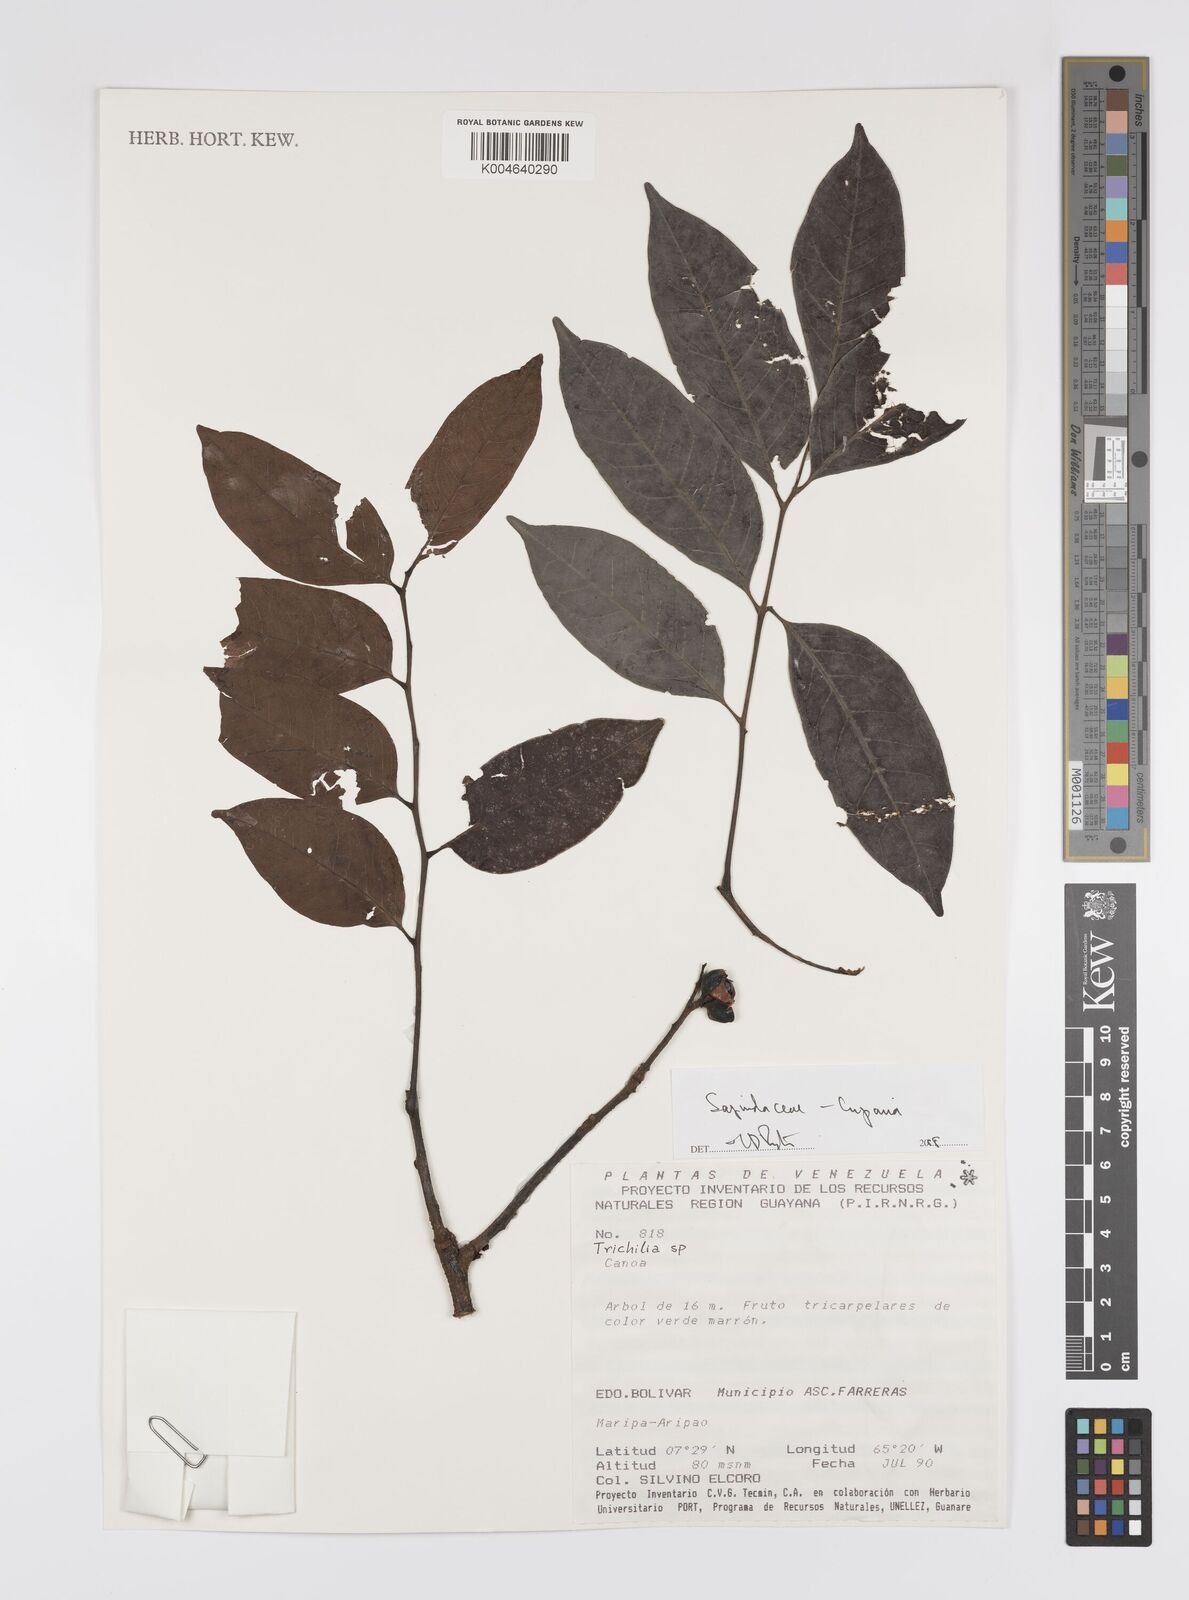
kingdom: Plantae
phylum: Tracheophyta
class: Magnoliopsida
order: Sapindales
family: Sapindaceae
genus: Cupania
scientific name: Cupania
